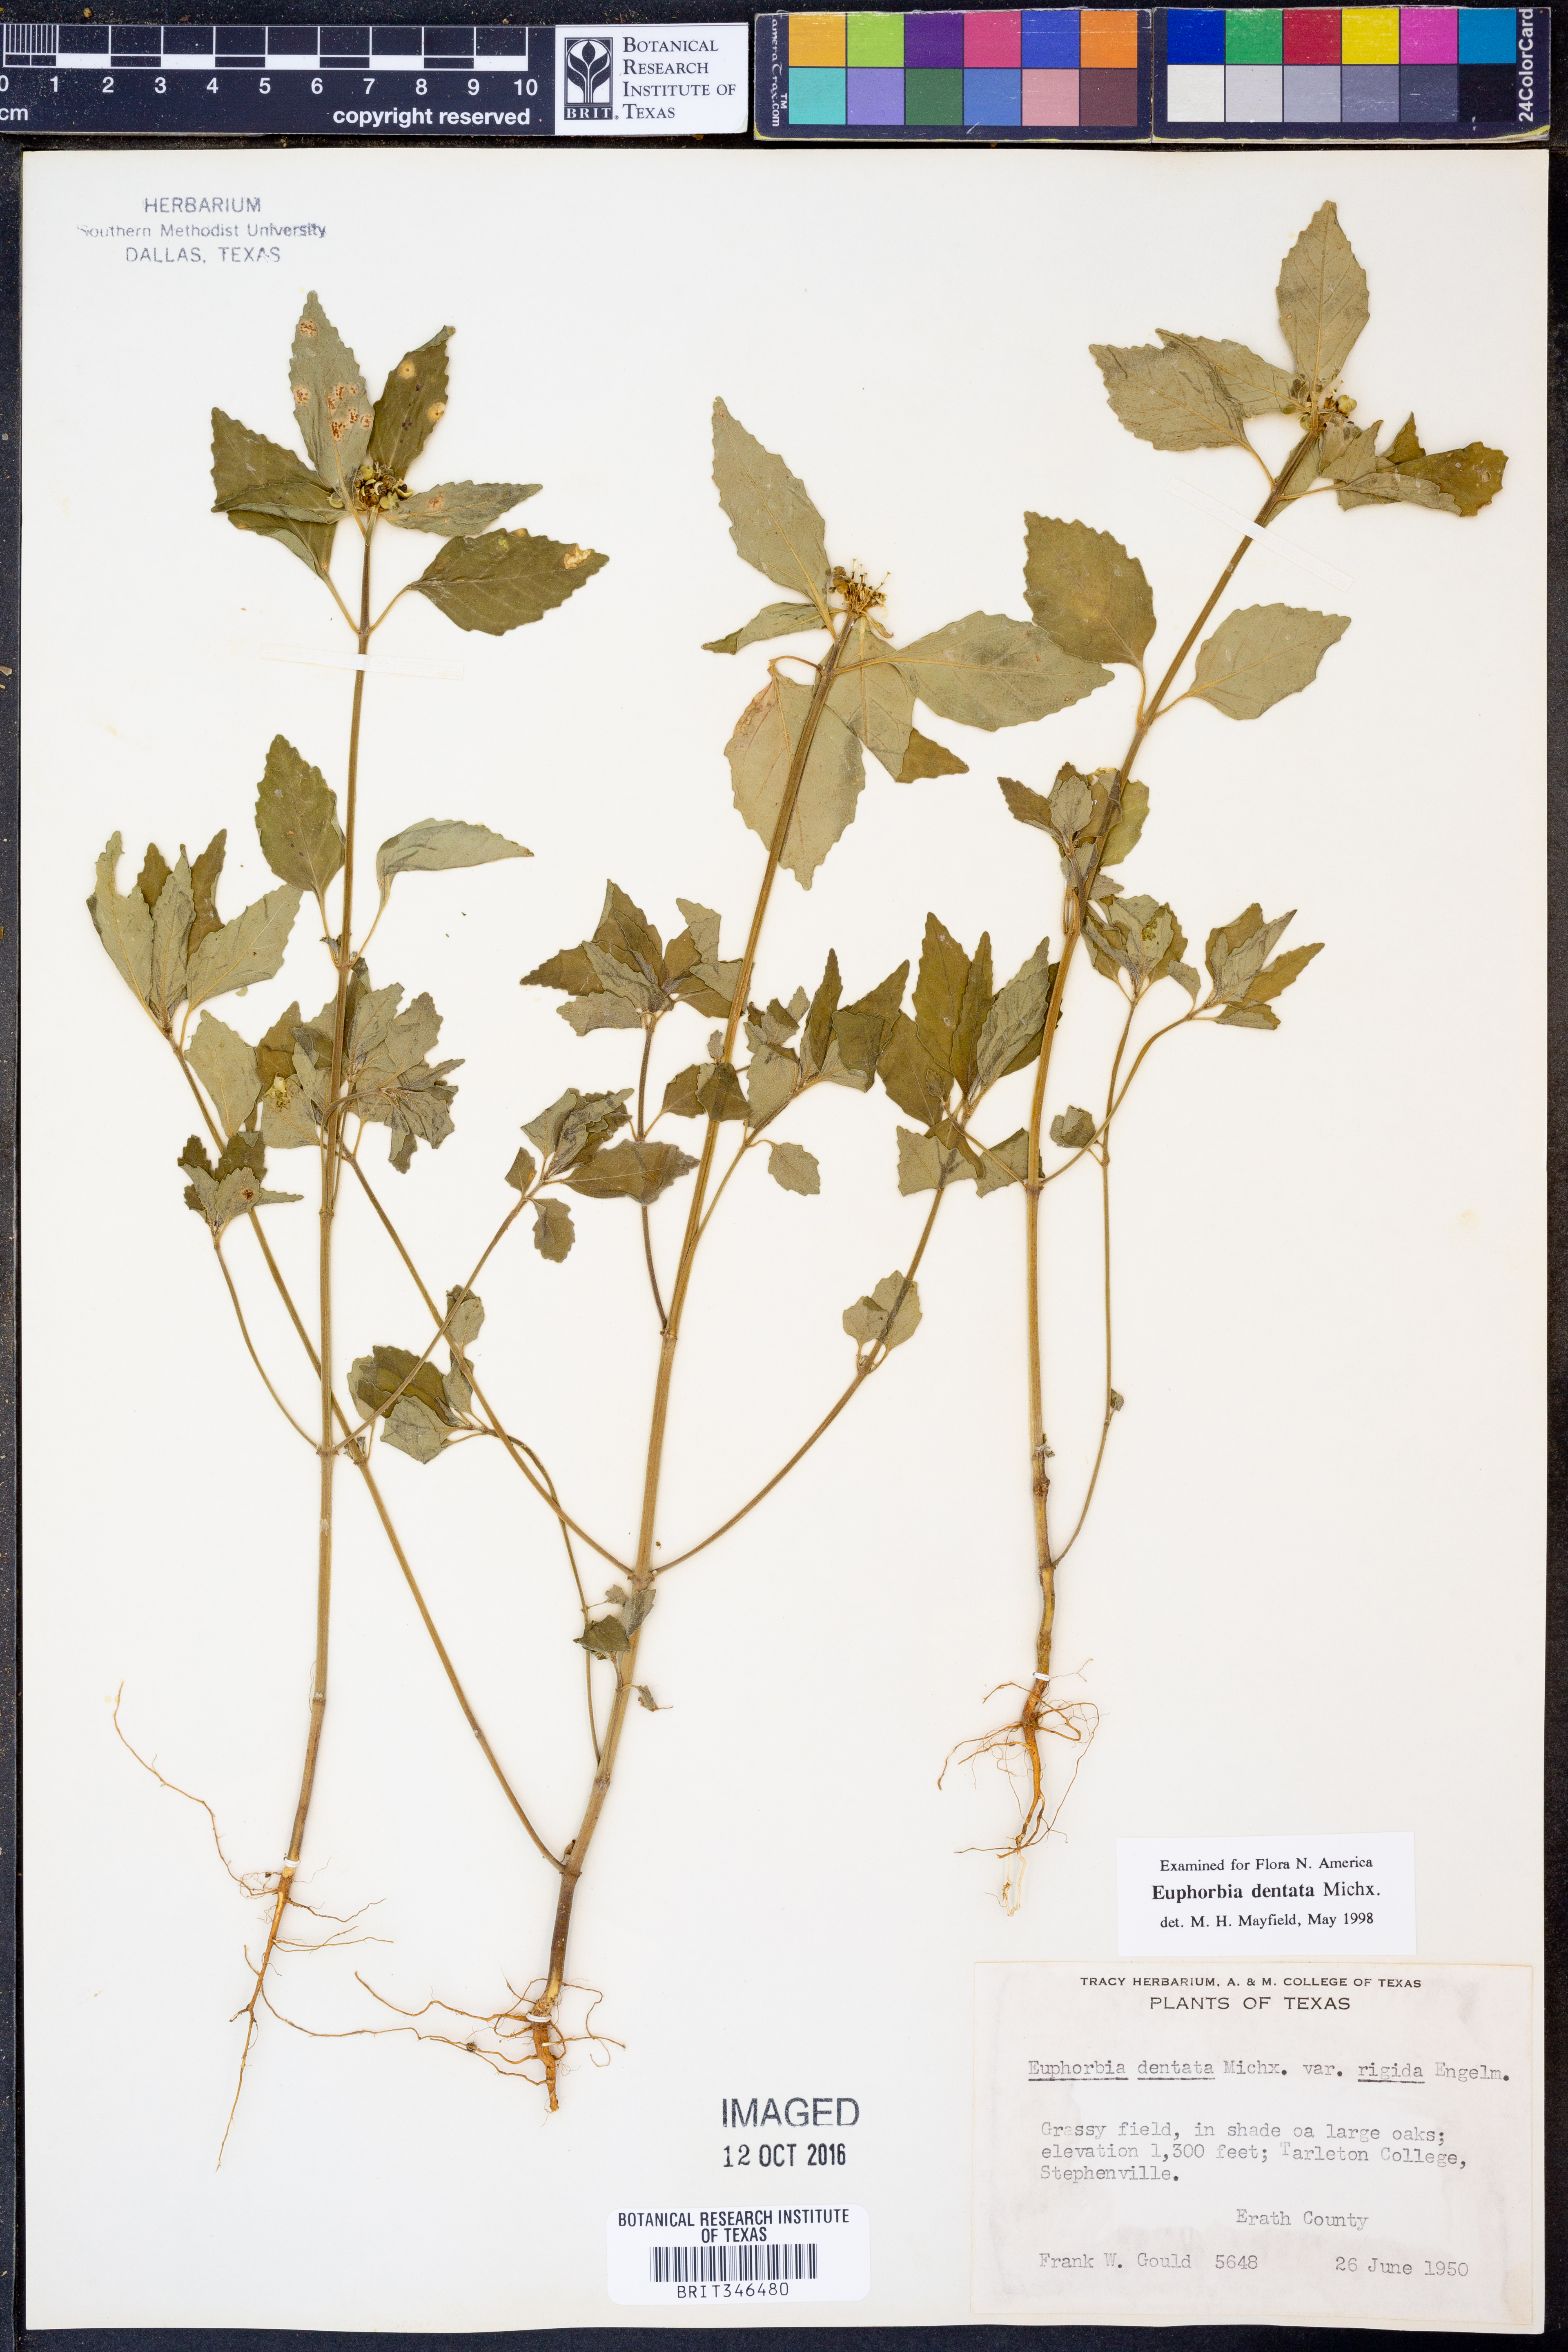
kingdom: Plantae
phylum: Tracheophyta
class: Magnoliopsida
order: Malpighiales
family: Euphorbiaceae
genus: Euphorbia
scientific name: Euphorbia dentata
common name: Dentate spurge
